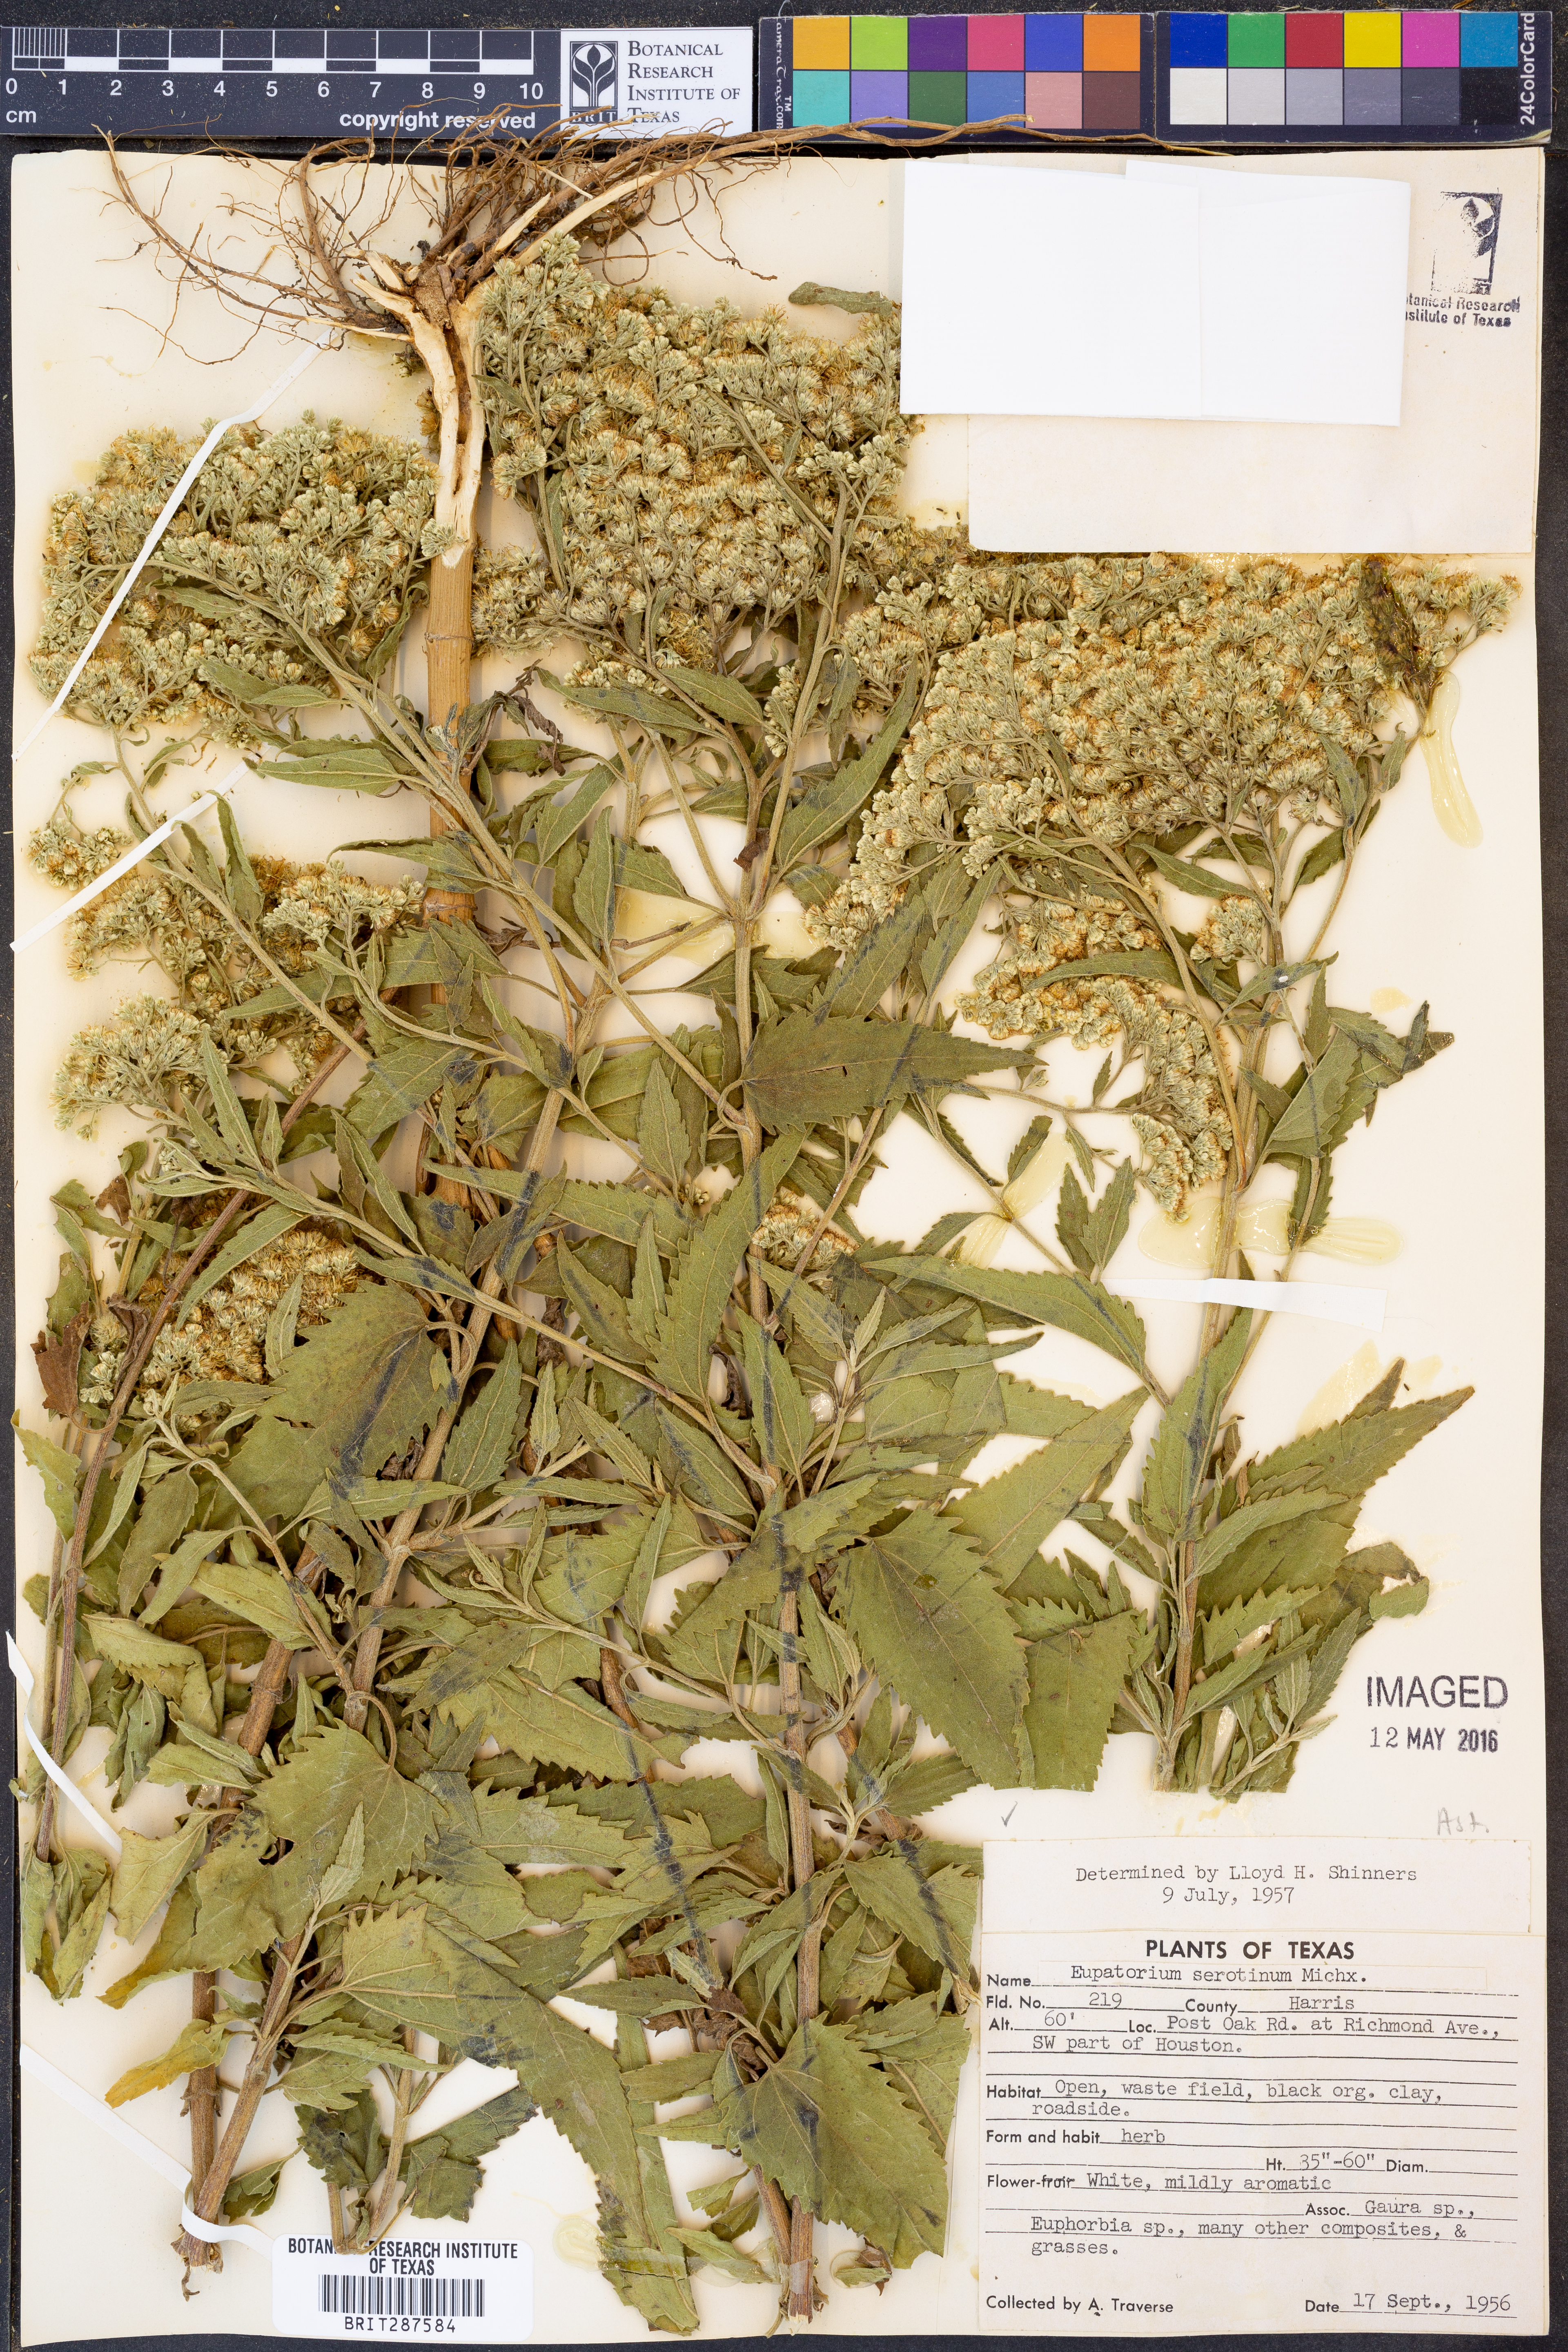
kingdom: Plantae
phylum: Tracheophyta
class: Magnoliopsida
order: Asterales
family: Asteraceae
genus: Eupatorium
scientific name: Eupatorium serotinum
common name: Late boneset
